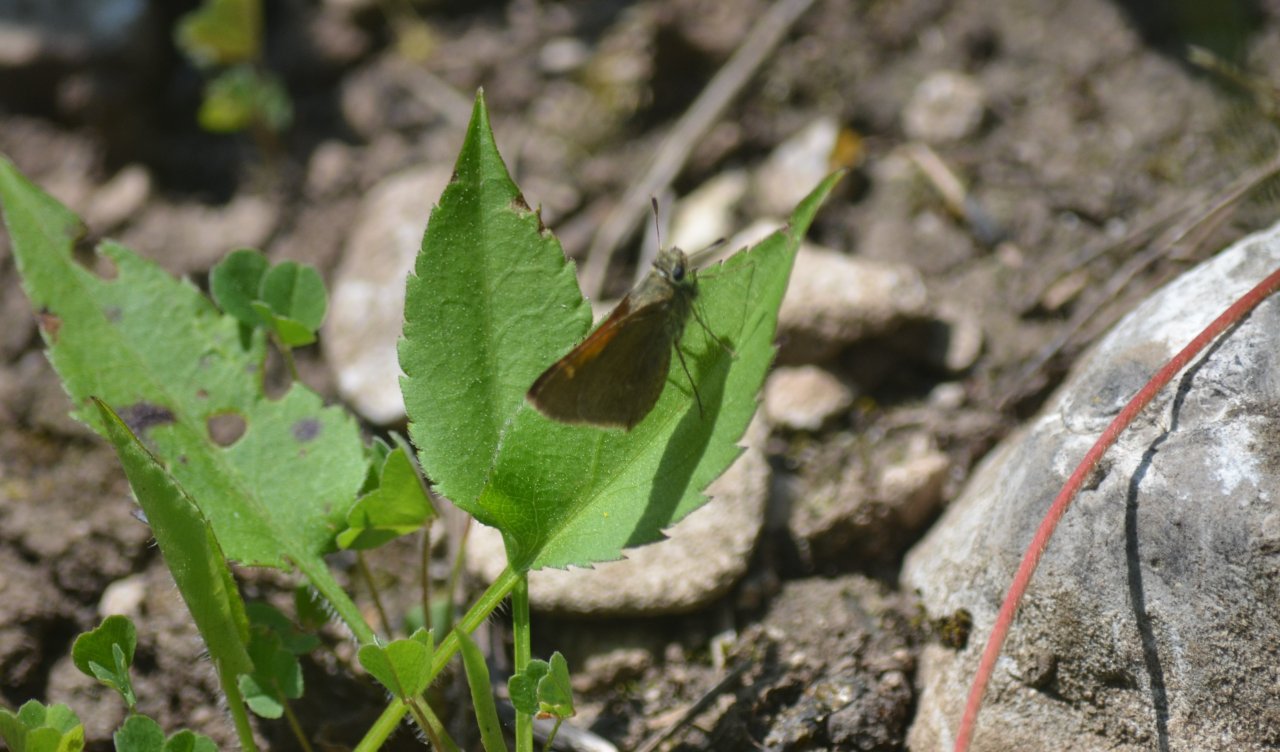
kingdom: Animalia
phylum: Arthropoda
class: Insecta
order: Lepidoptera
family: Hesperiidae
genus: Polites
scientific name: Polites themistocles
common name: Tawny-edged Skipper
